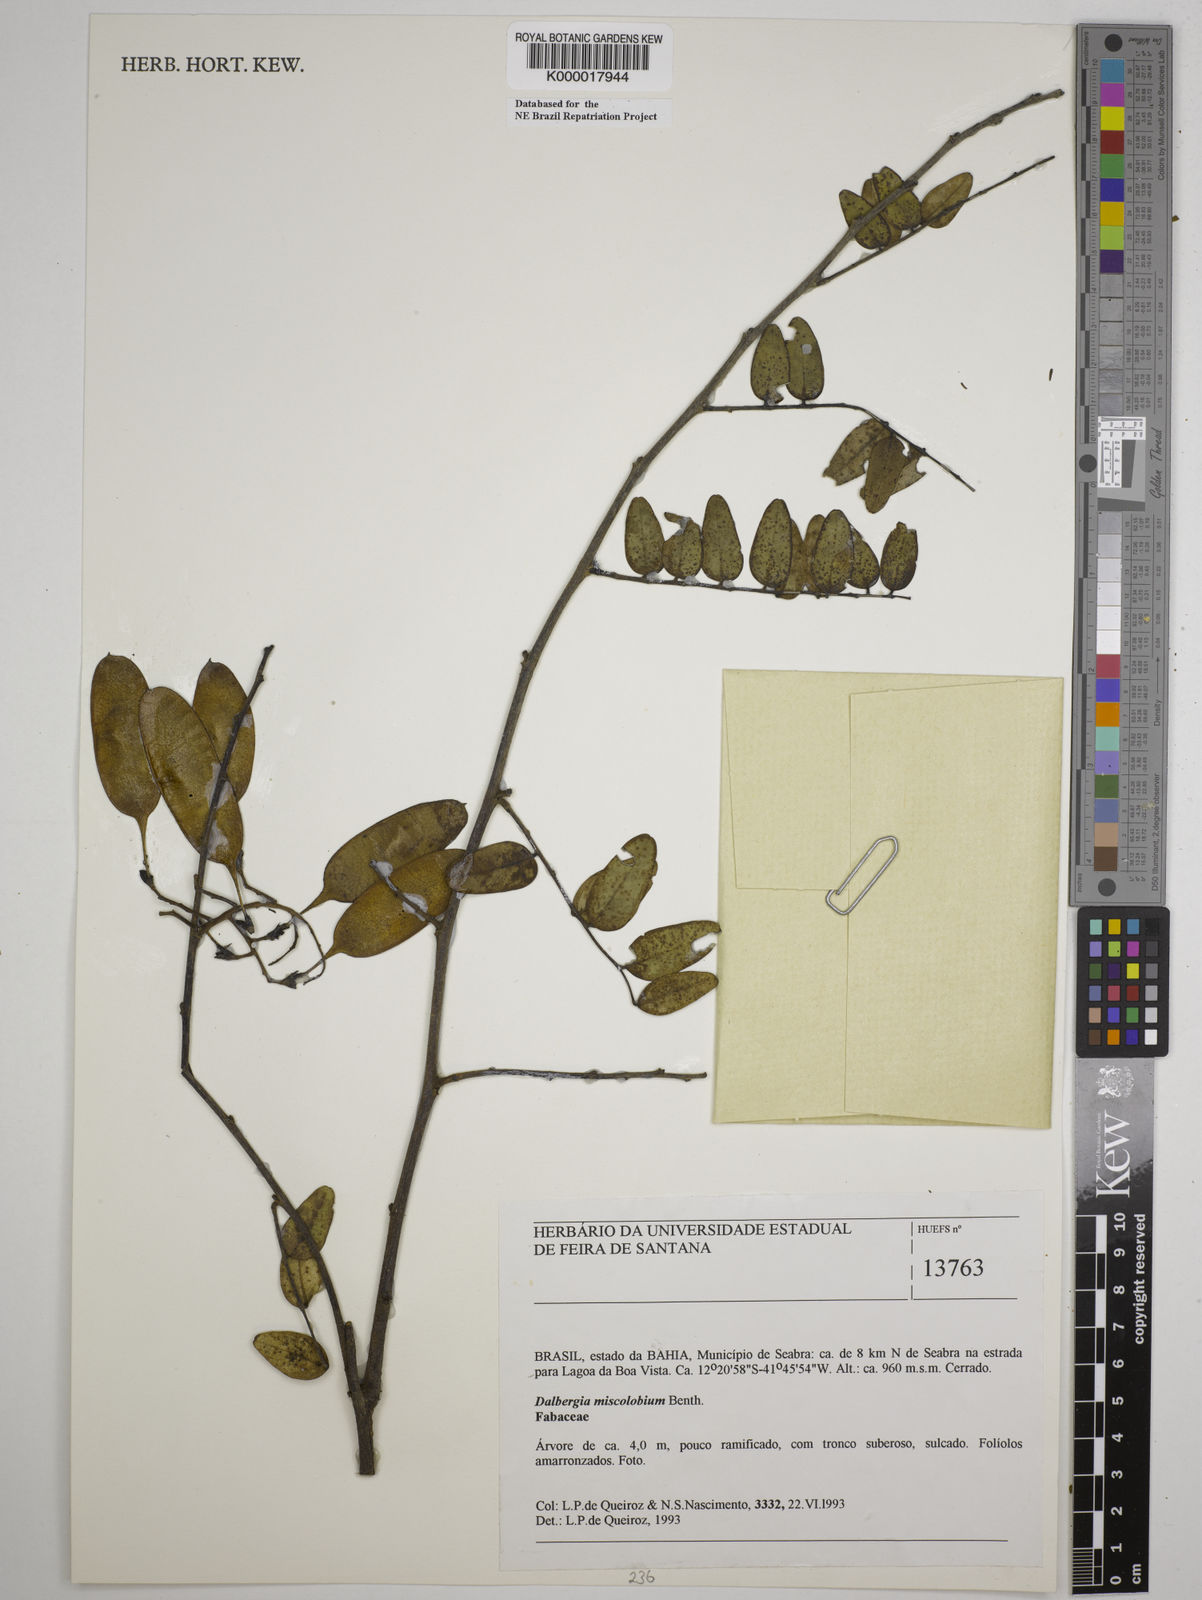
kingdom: Plantae
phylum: Tracheophyta
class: Magnoliopsida
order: Fabales
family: Fabaceae
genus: Dalbergia
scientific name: Dalbergia miscolobium
